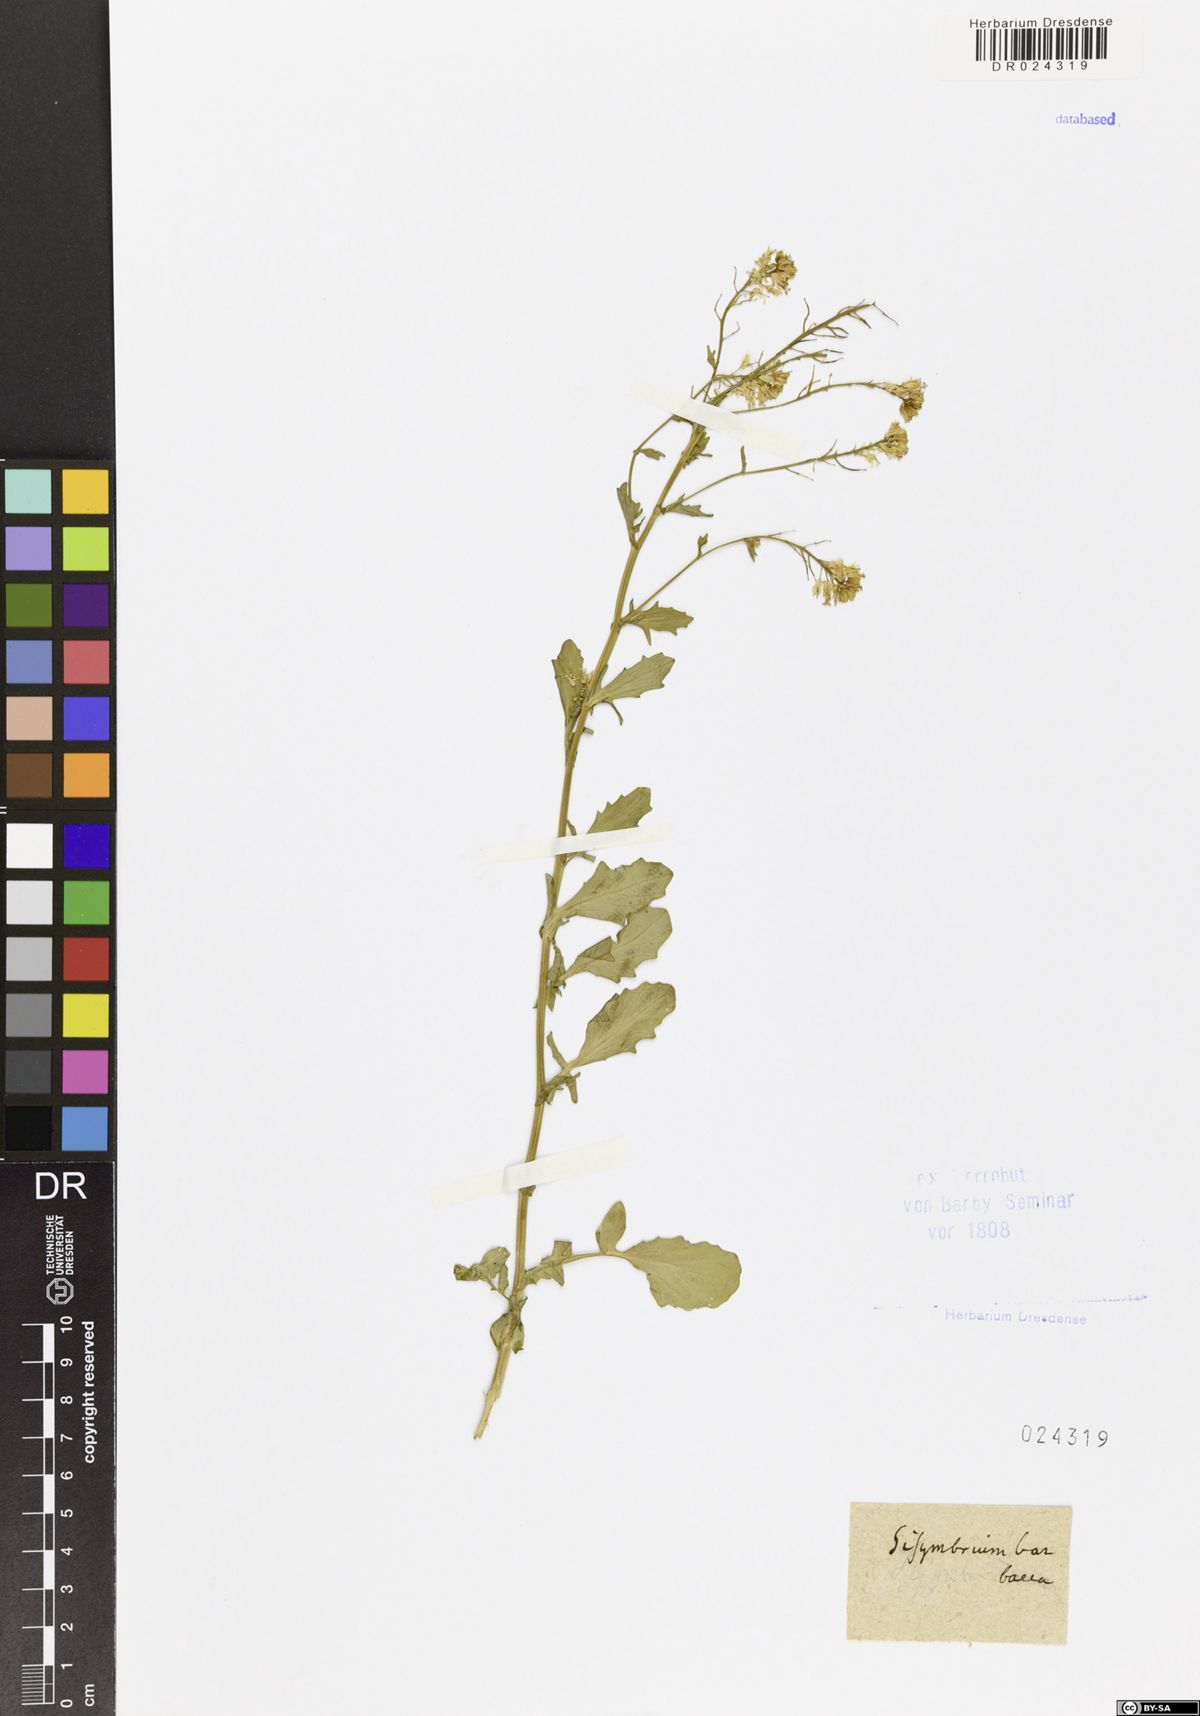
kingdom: Plantae
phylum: Tracheophyta
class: Magnoliopsida
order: Brassicales
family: Brassicaceae
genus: Barbarea
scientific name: Barbarea vulgaris
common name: Cressy-greens
